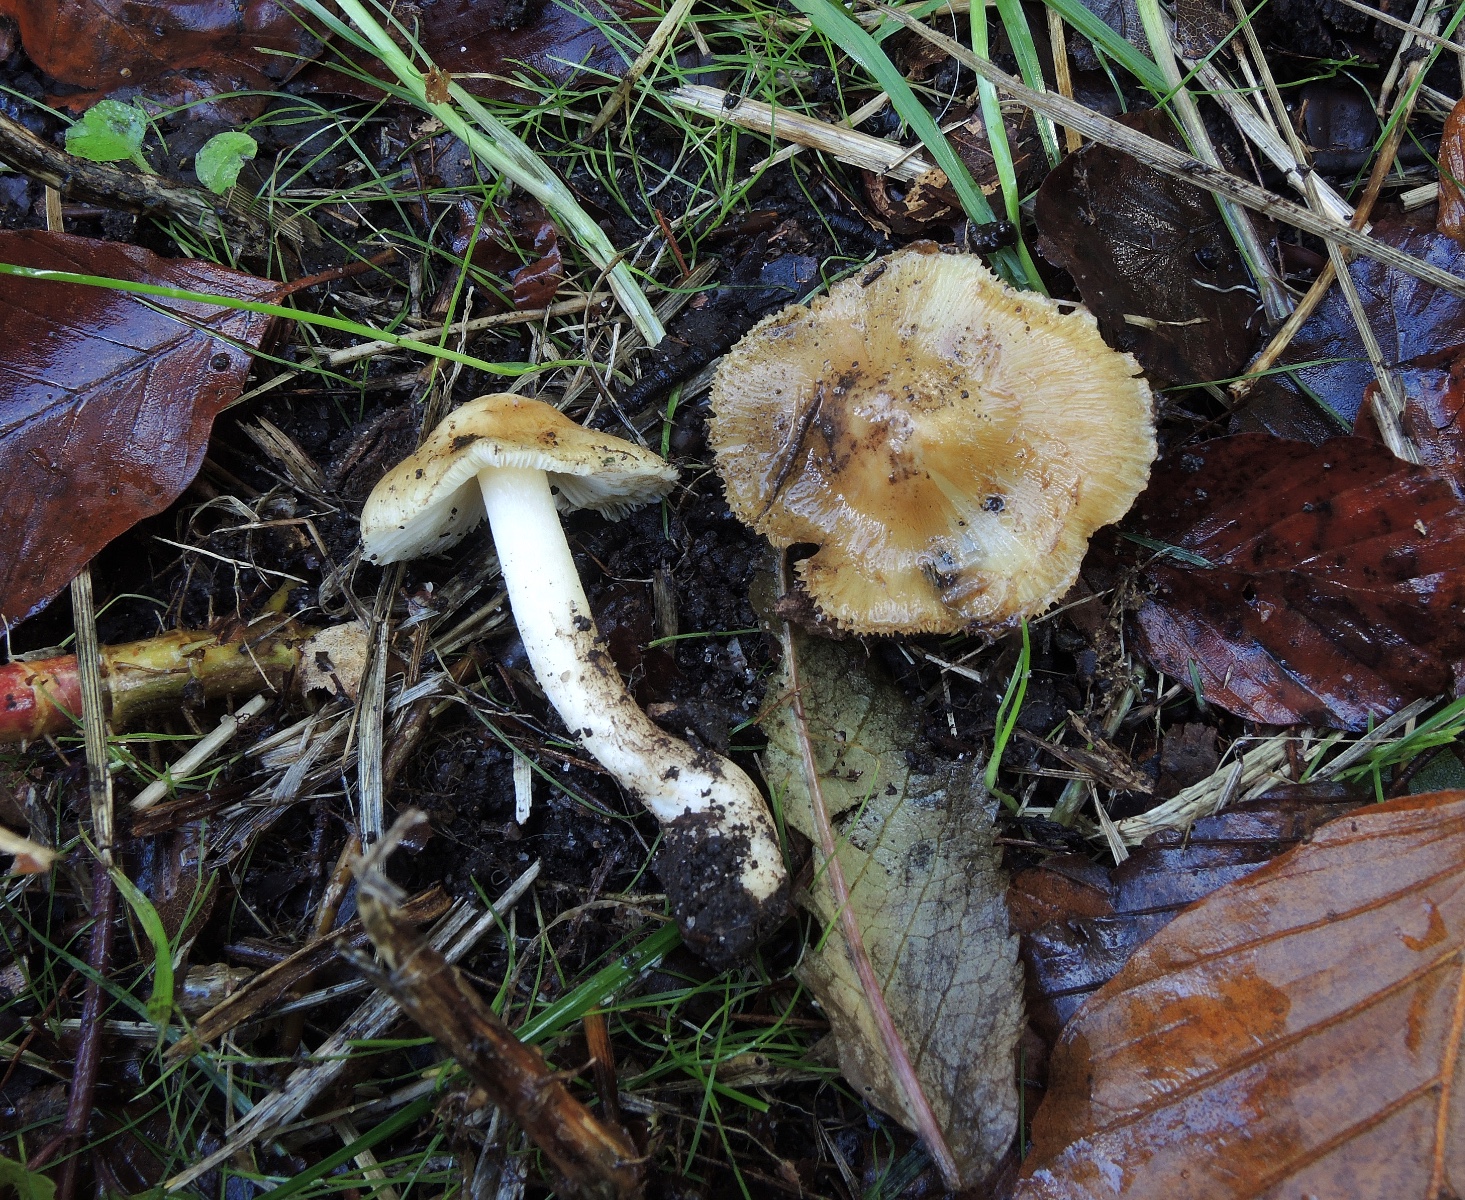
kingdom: Fungi
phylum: Basidiomycota
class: Agaricomycetes
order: Agaricales
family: Inocybaceae
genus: Inosperma
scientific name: Inosperma
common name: Trævlhat
